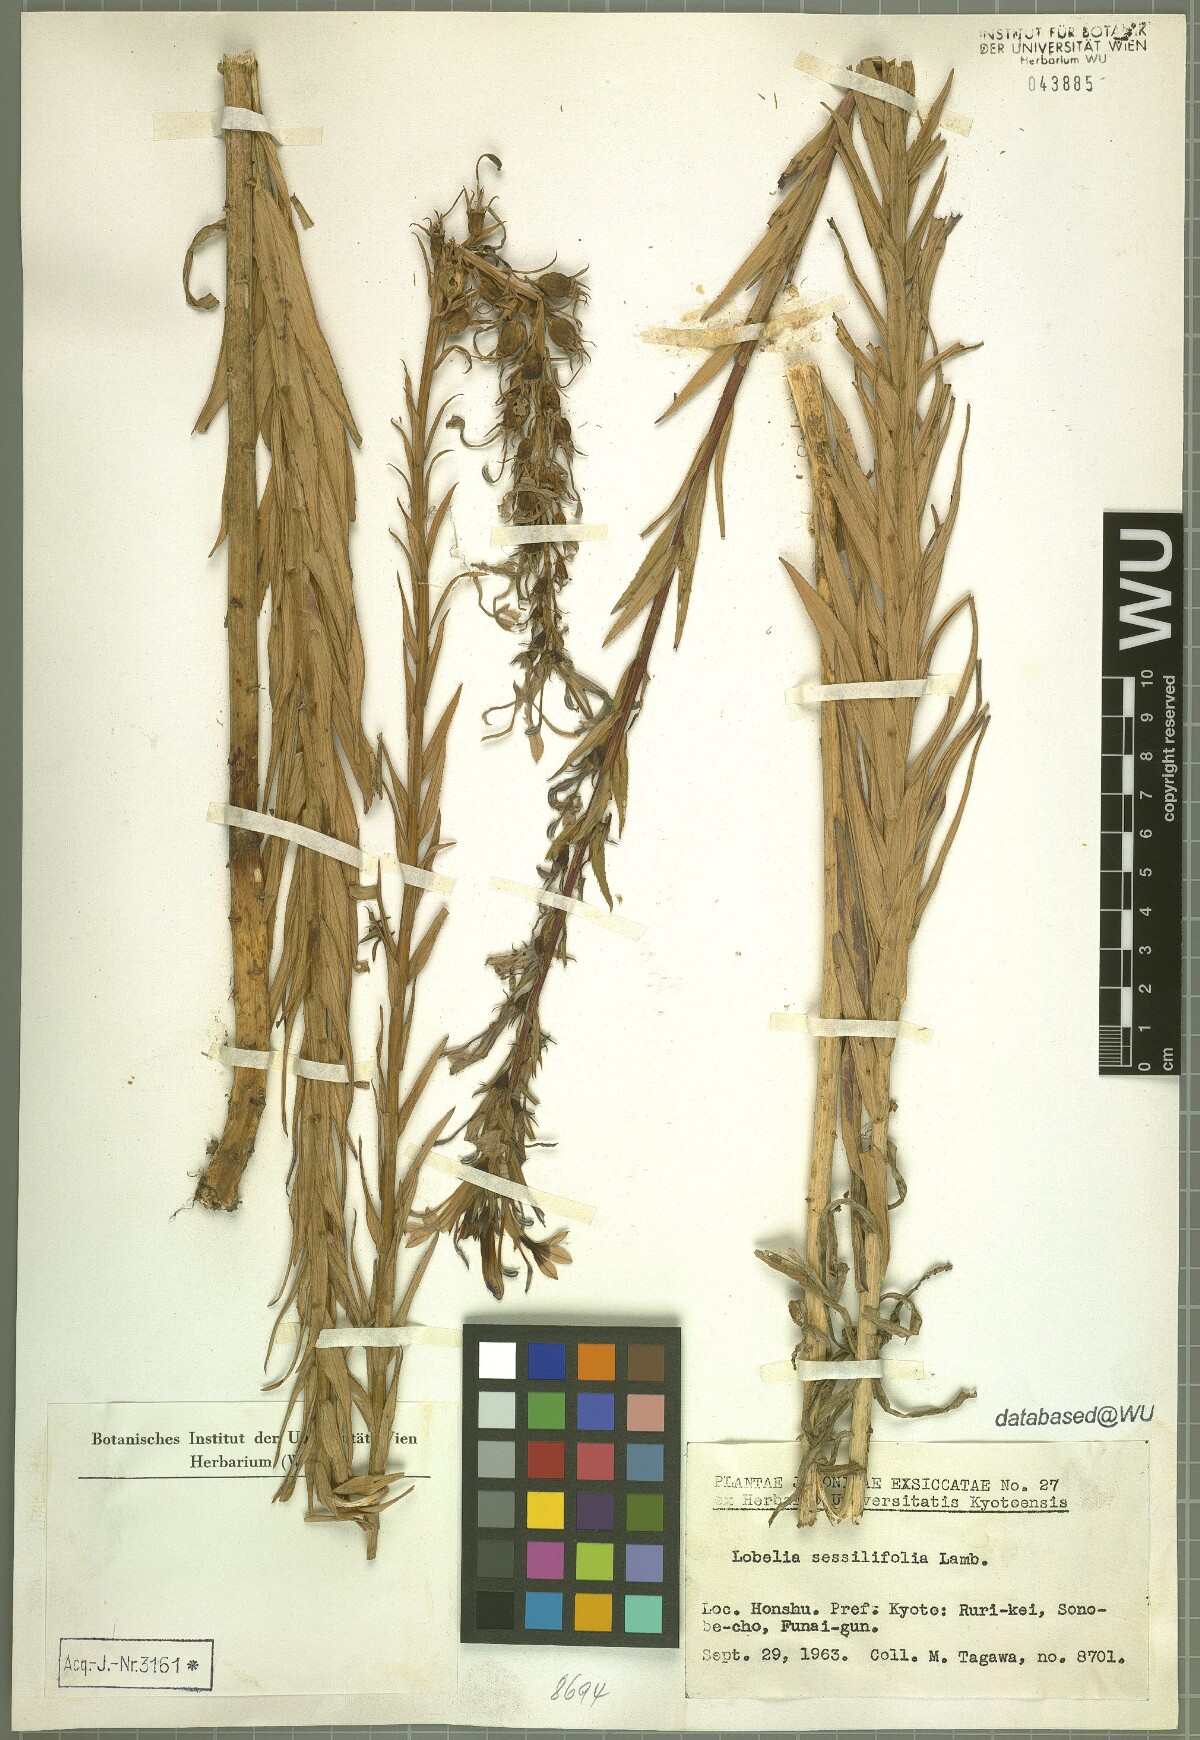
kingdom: Plantae
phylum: Tracheophyta
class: Magnoliopsida
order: Asterales
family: Campanulaceae
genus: Lobelia
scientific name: Lobelia sessilifolia
